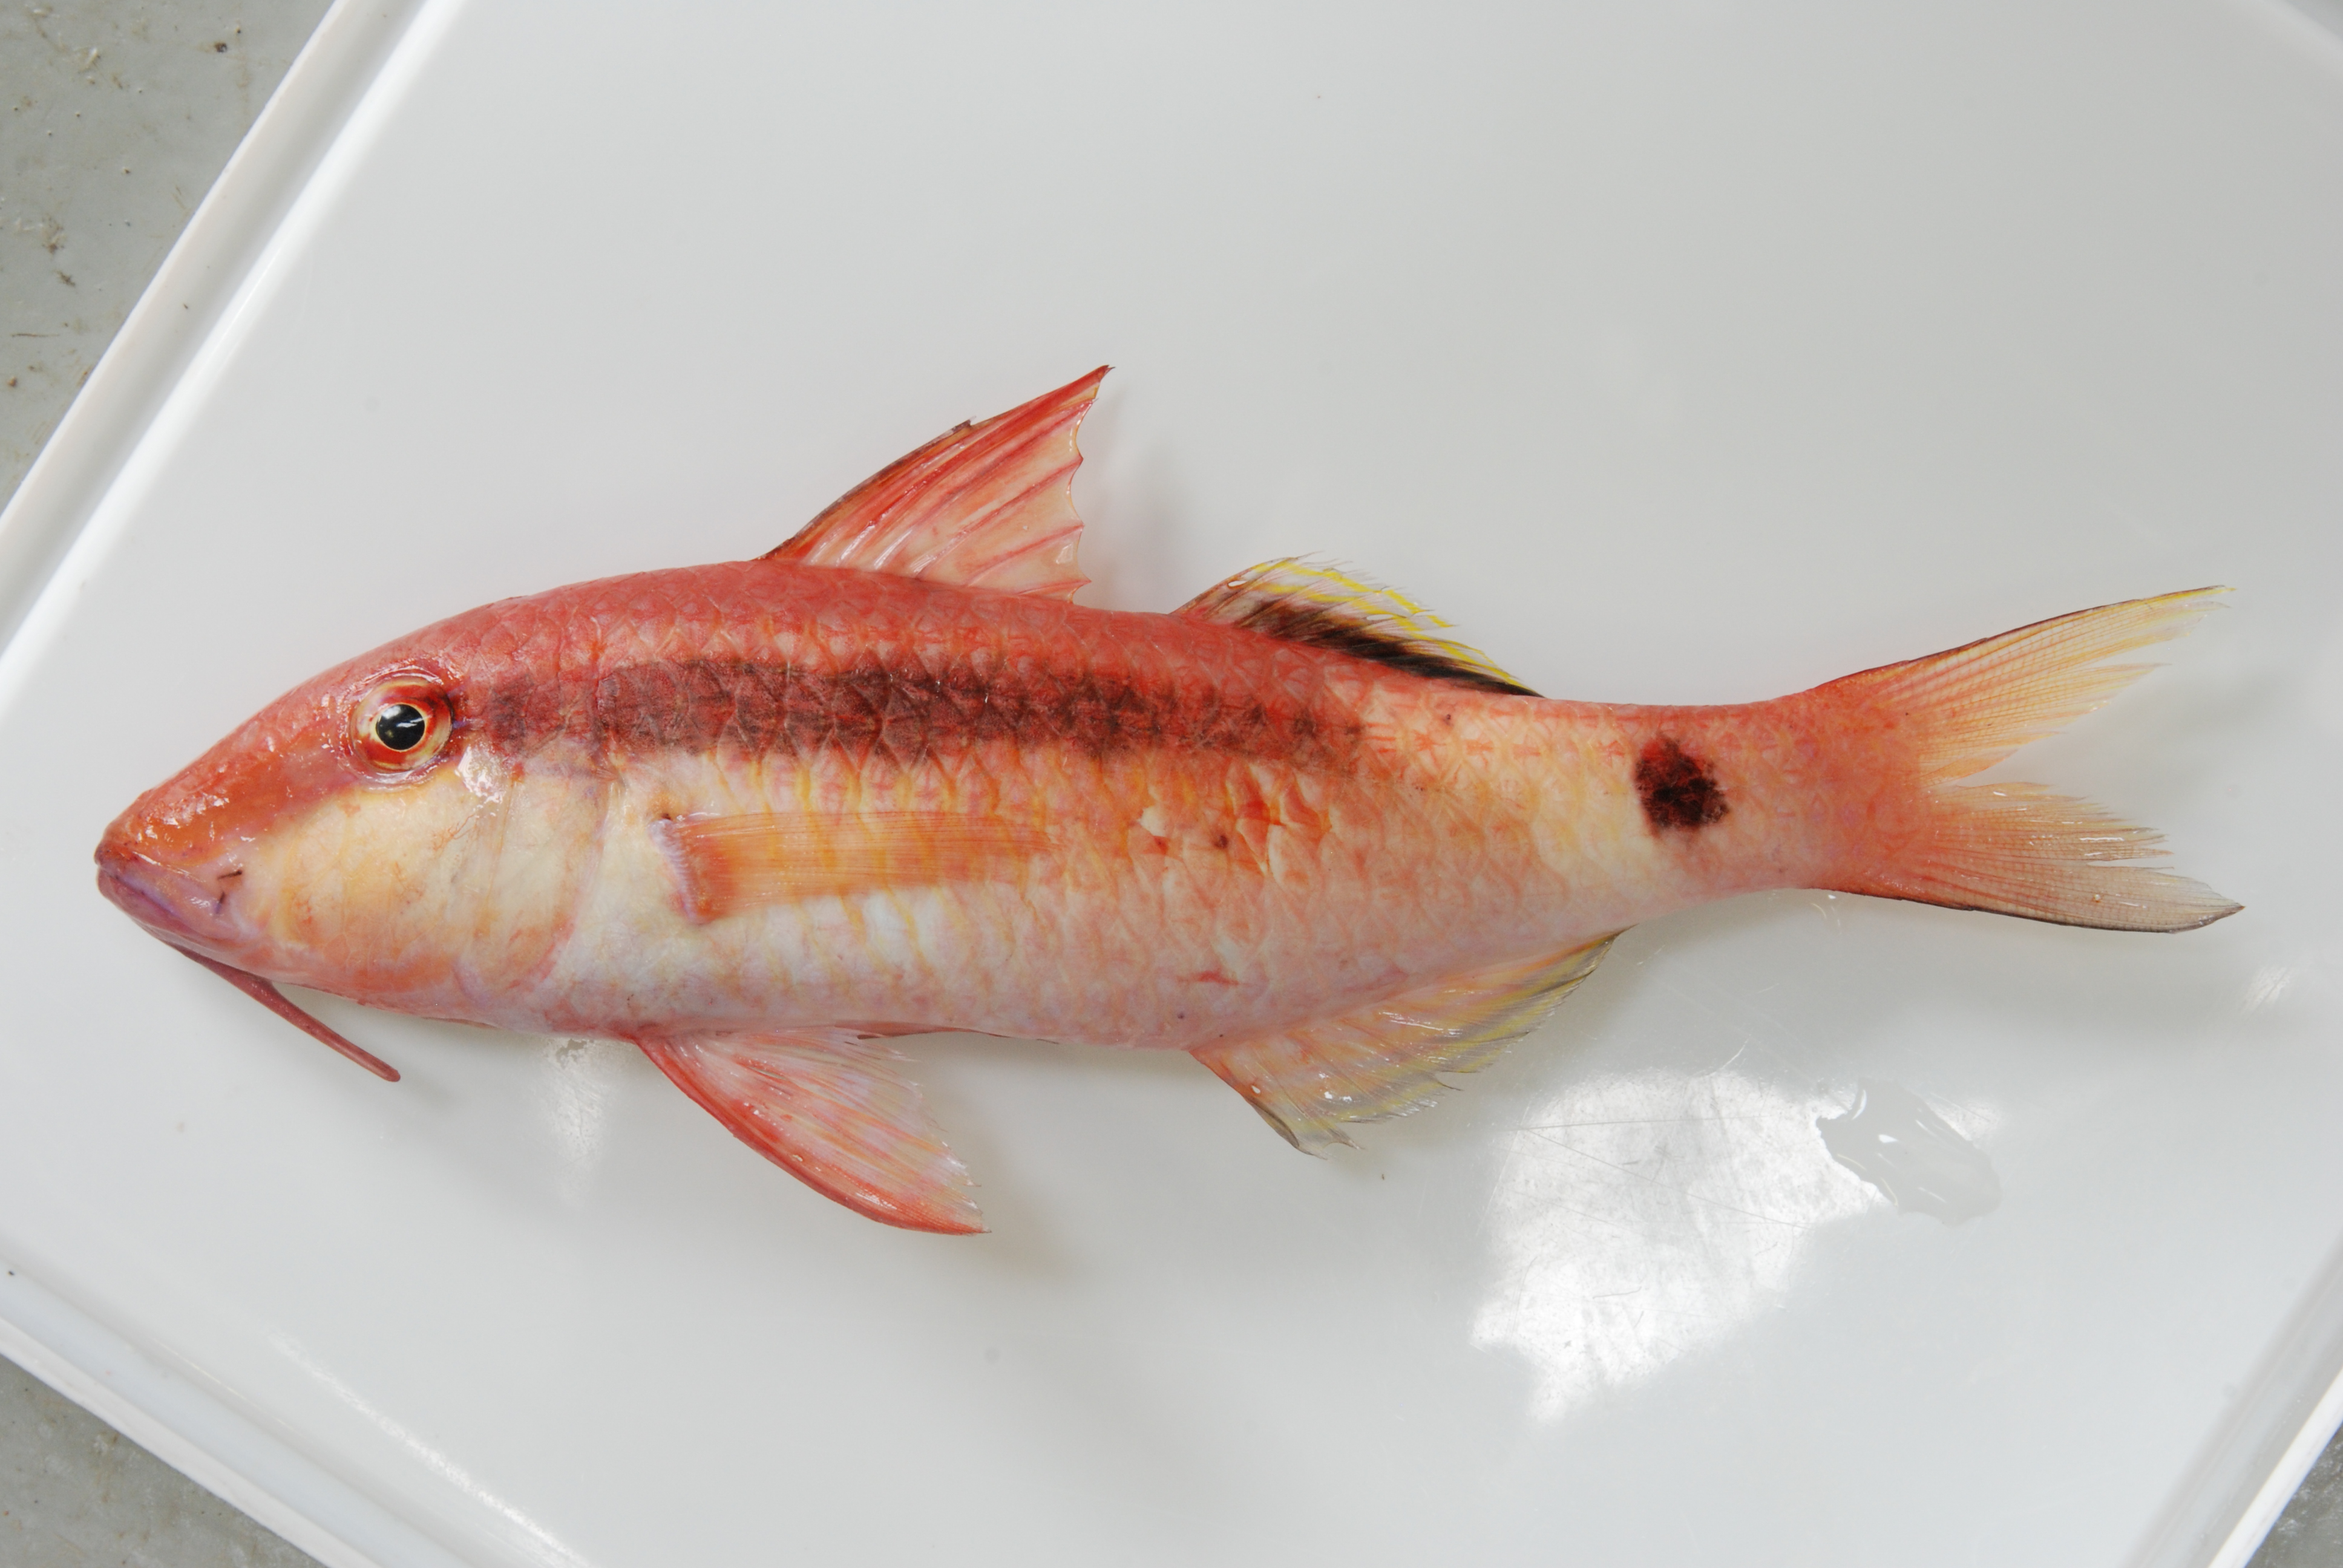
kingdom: Animalia
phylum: Chordata
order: Perciformes
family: Mullidae
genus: Parupeneus
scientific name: Parupeneus macronemus
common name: Long-barbel goatfish
